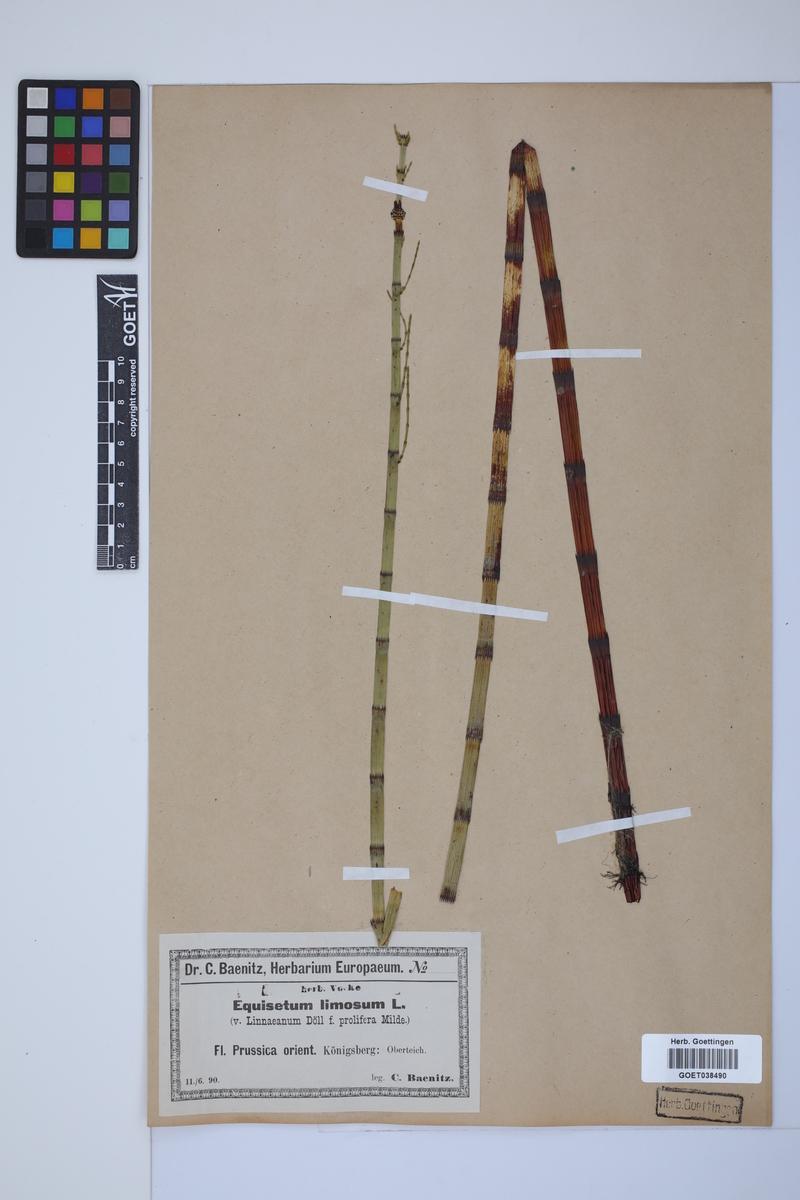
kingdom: Plantae
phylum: Tracheophyta
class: Polypodiopsida
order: Equisetales
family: Equisetaceae
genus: Equisetum
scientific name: Equisetum fluviatile
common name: Water horsetail
